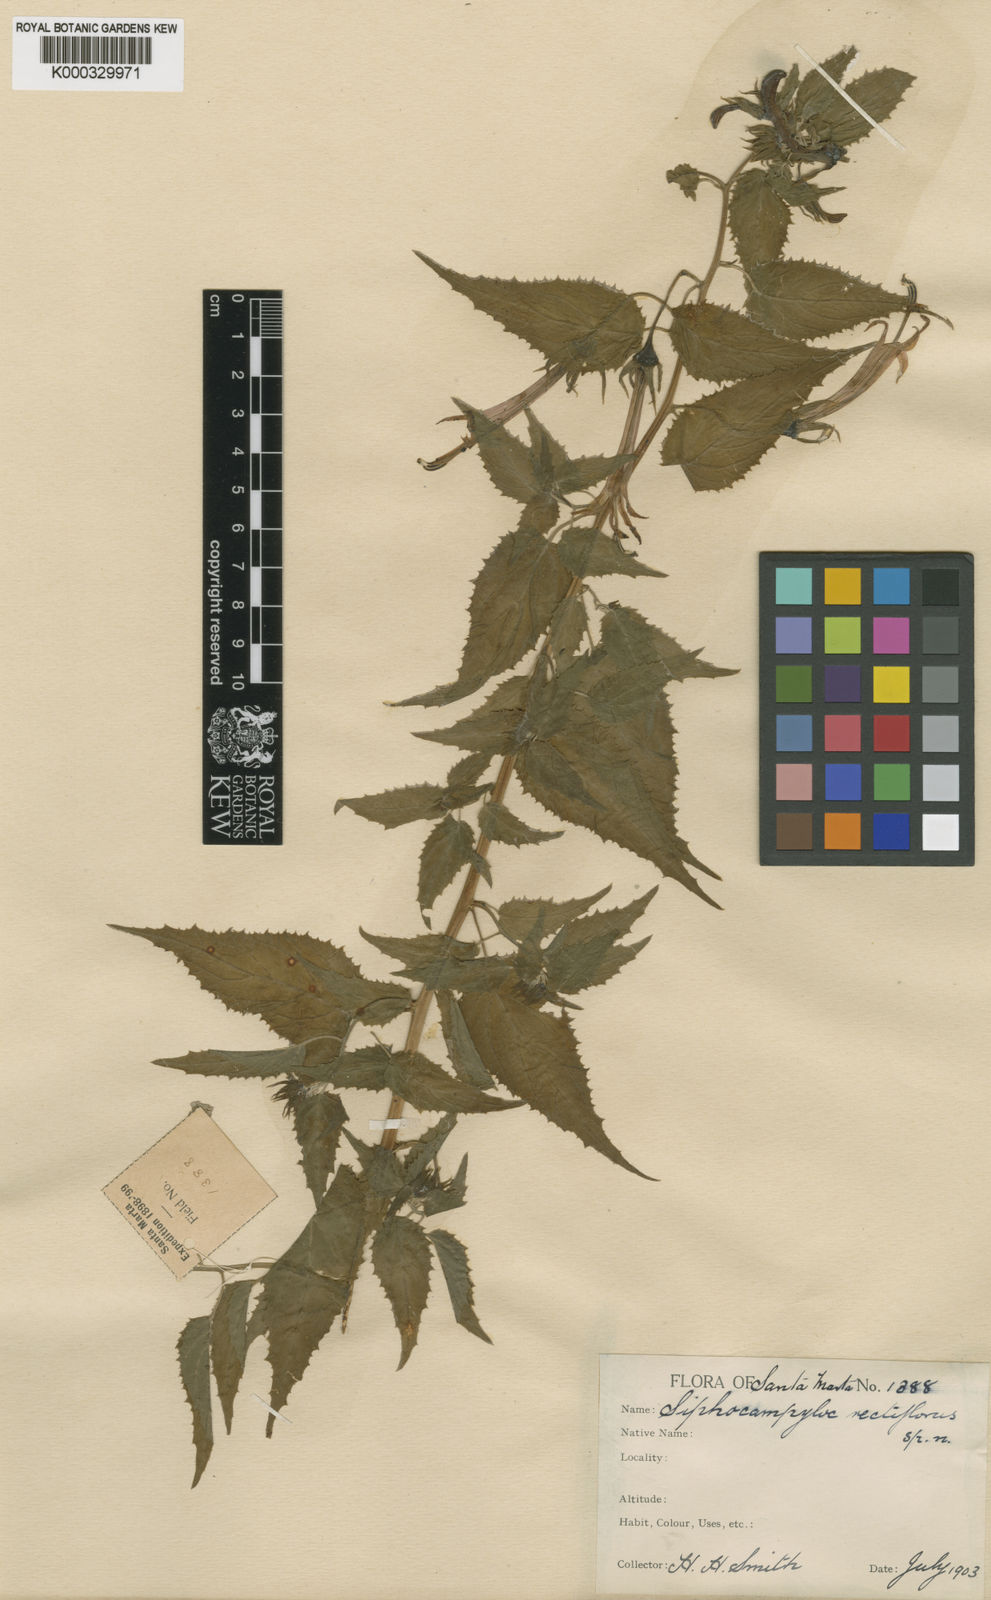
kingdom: Plantae
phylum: Tracheophyta
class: Magnoliopsida
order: Asterales
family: Campanulaceae
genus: Siphocampylus
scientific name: Siphocampylus rectiflorus
